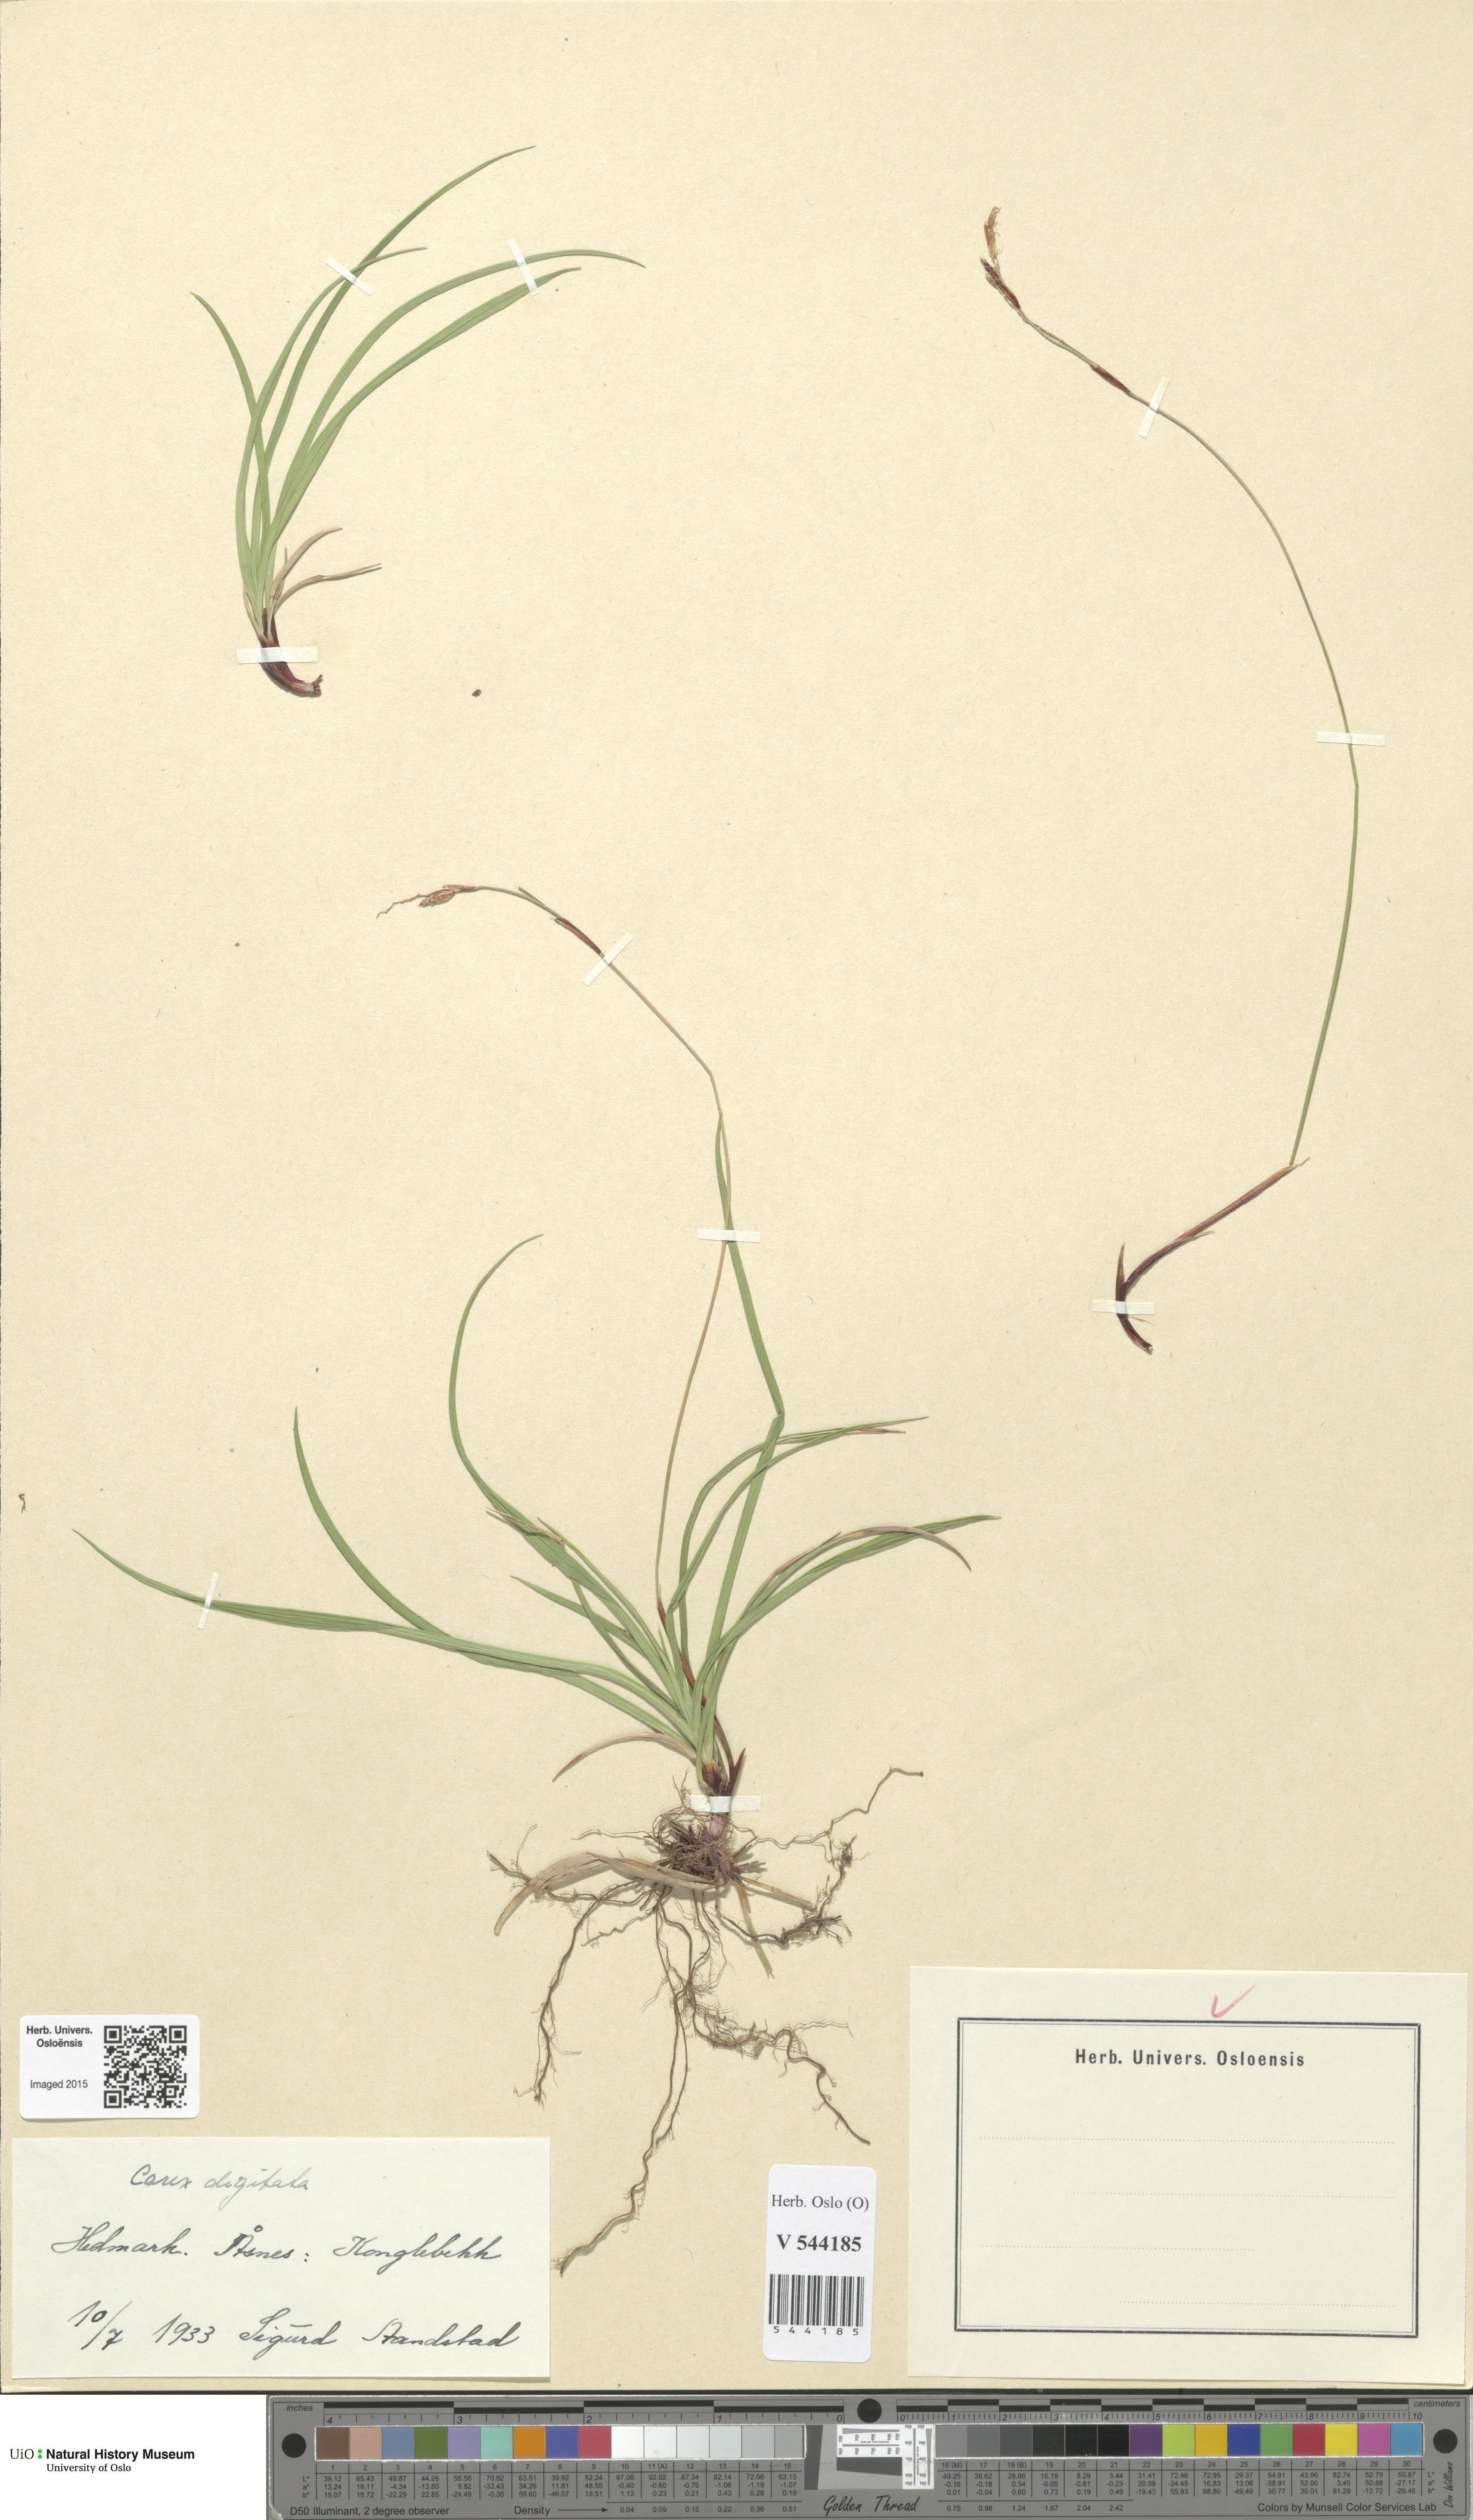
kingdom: Plantae
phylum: Tracheophyta
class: Liliopsida
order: Poales
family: Cyperaceae
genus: Carex
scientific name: Carex digitata
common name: Fingered sedge
